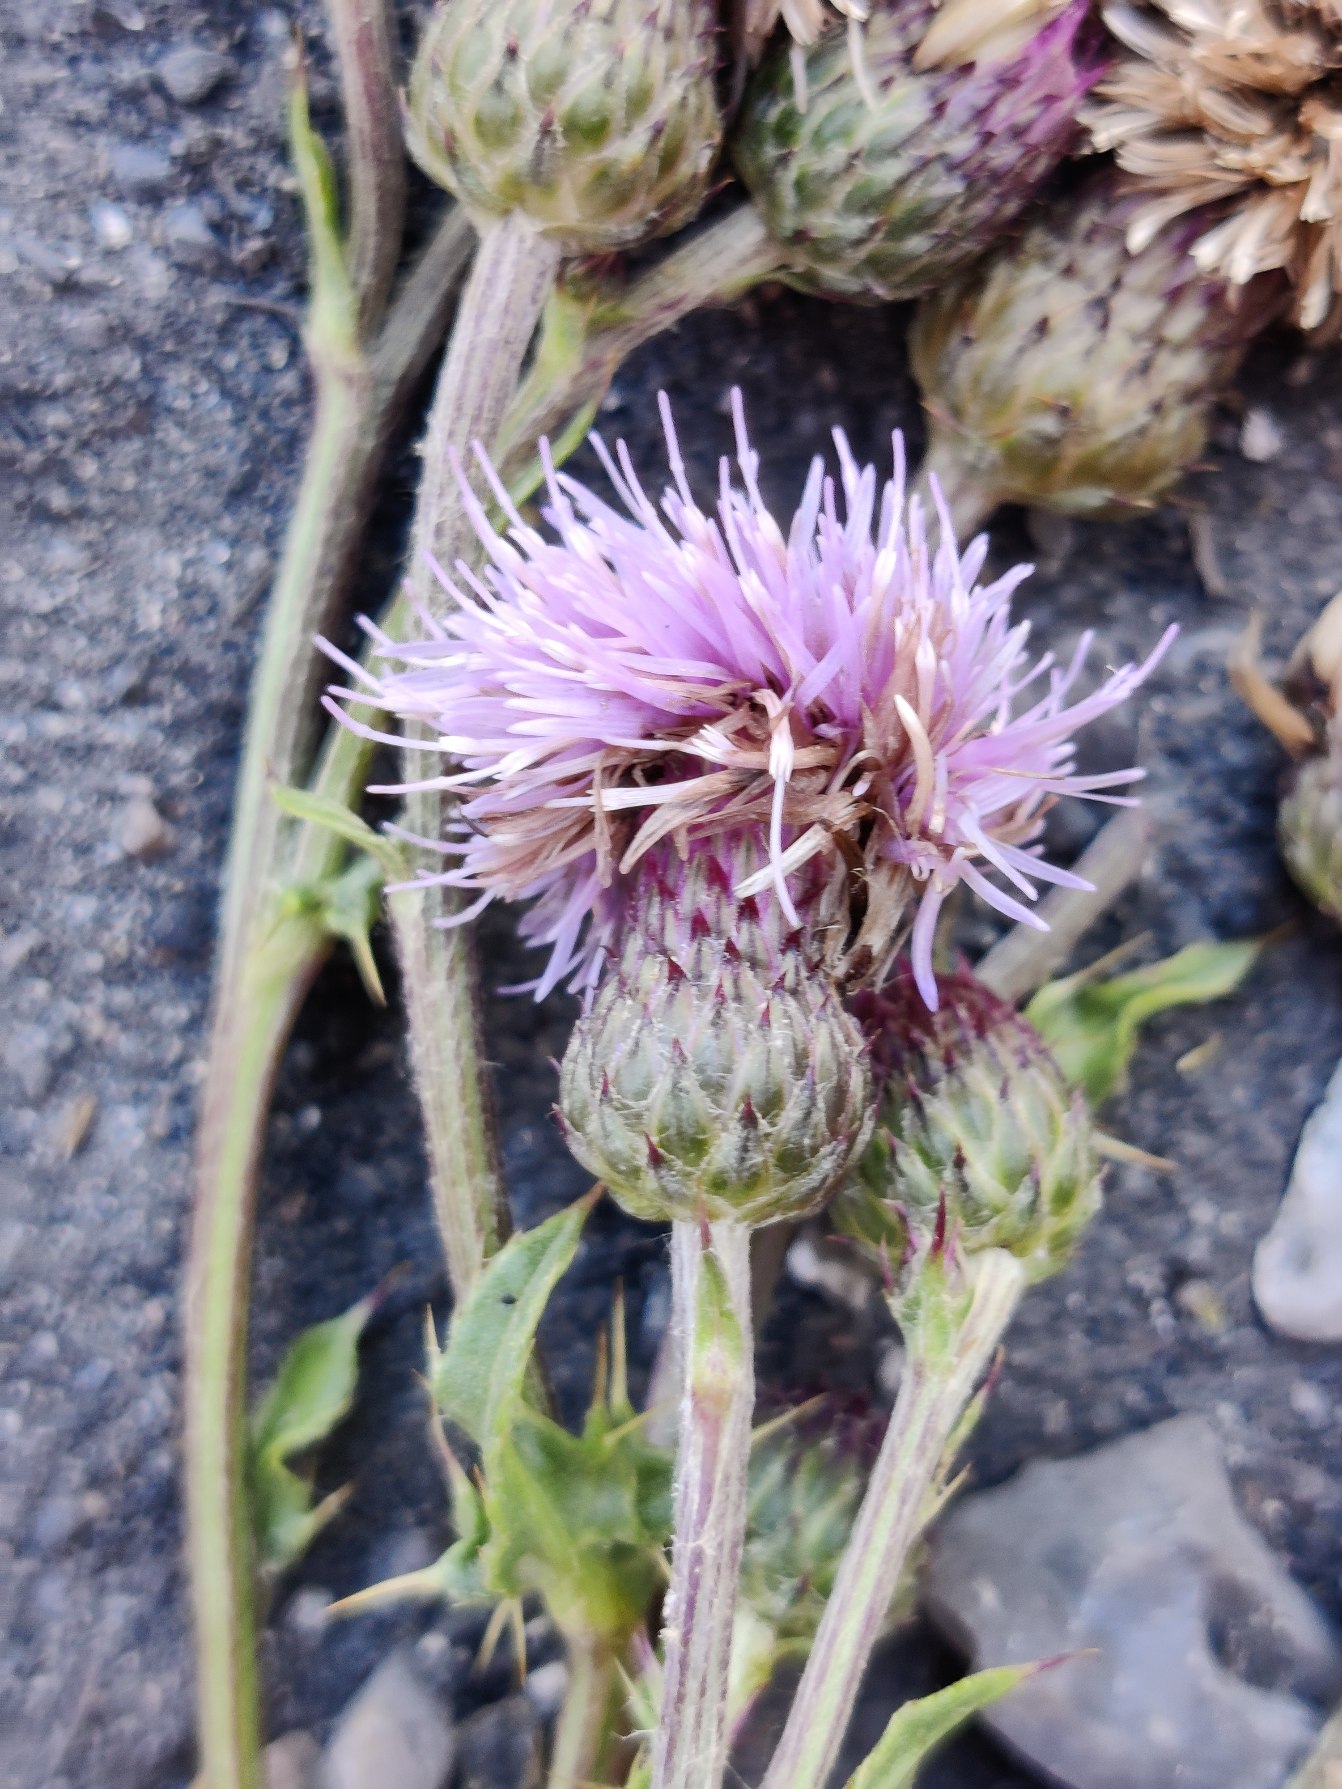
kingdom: Plantae
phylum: Tracheophyta
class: Magnoliopsida
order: Asterales
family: Asteraceae
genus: Cirsium
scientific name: Cirsium arvense
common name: Ager-tidsel
